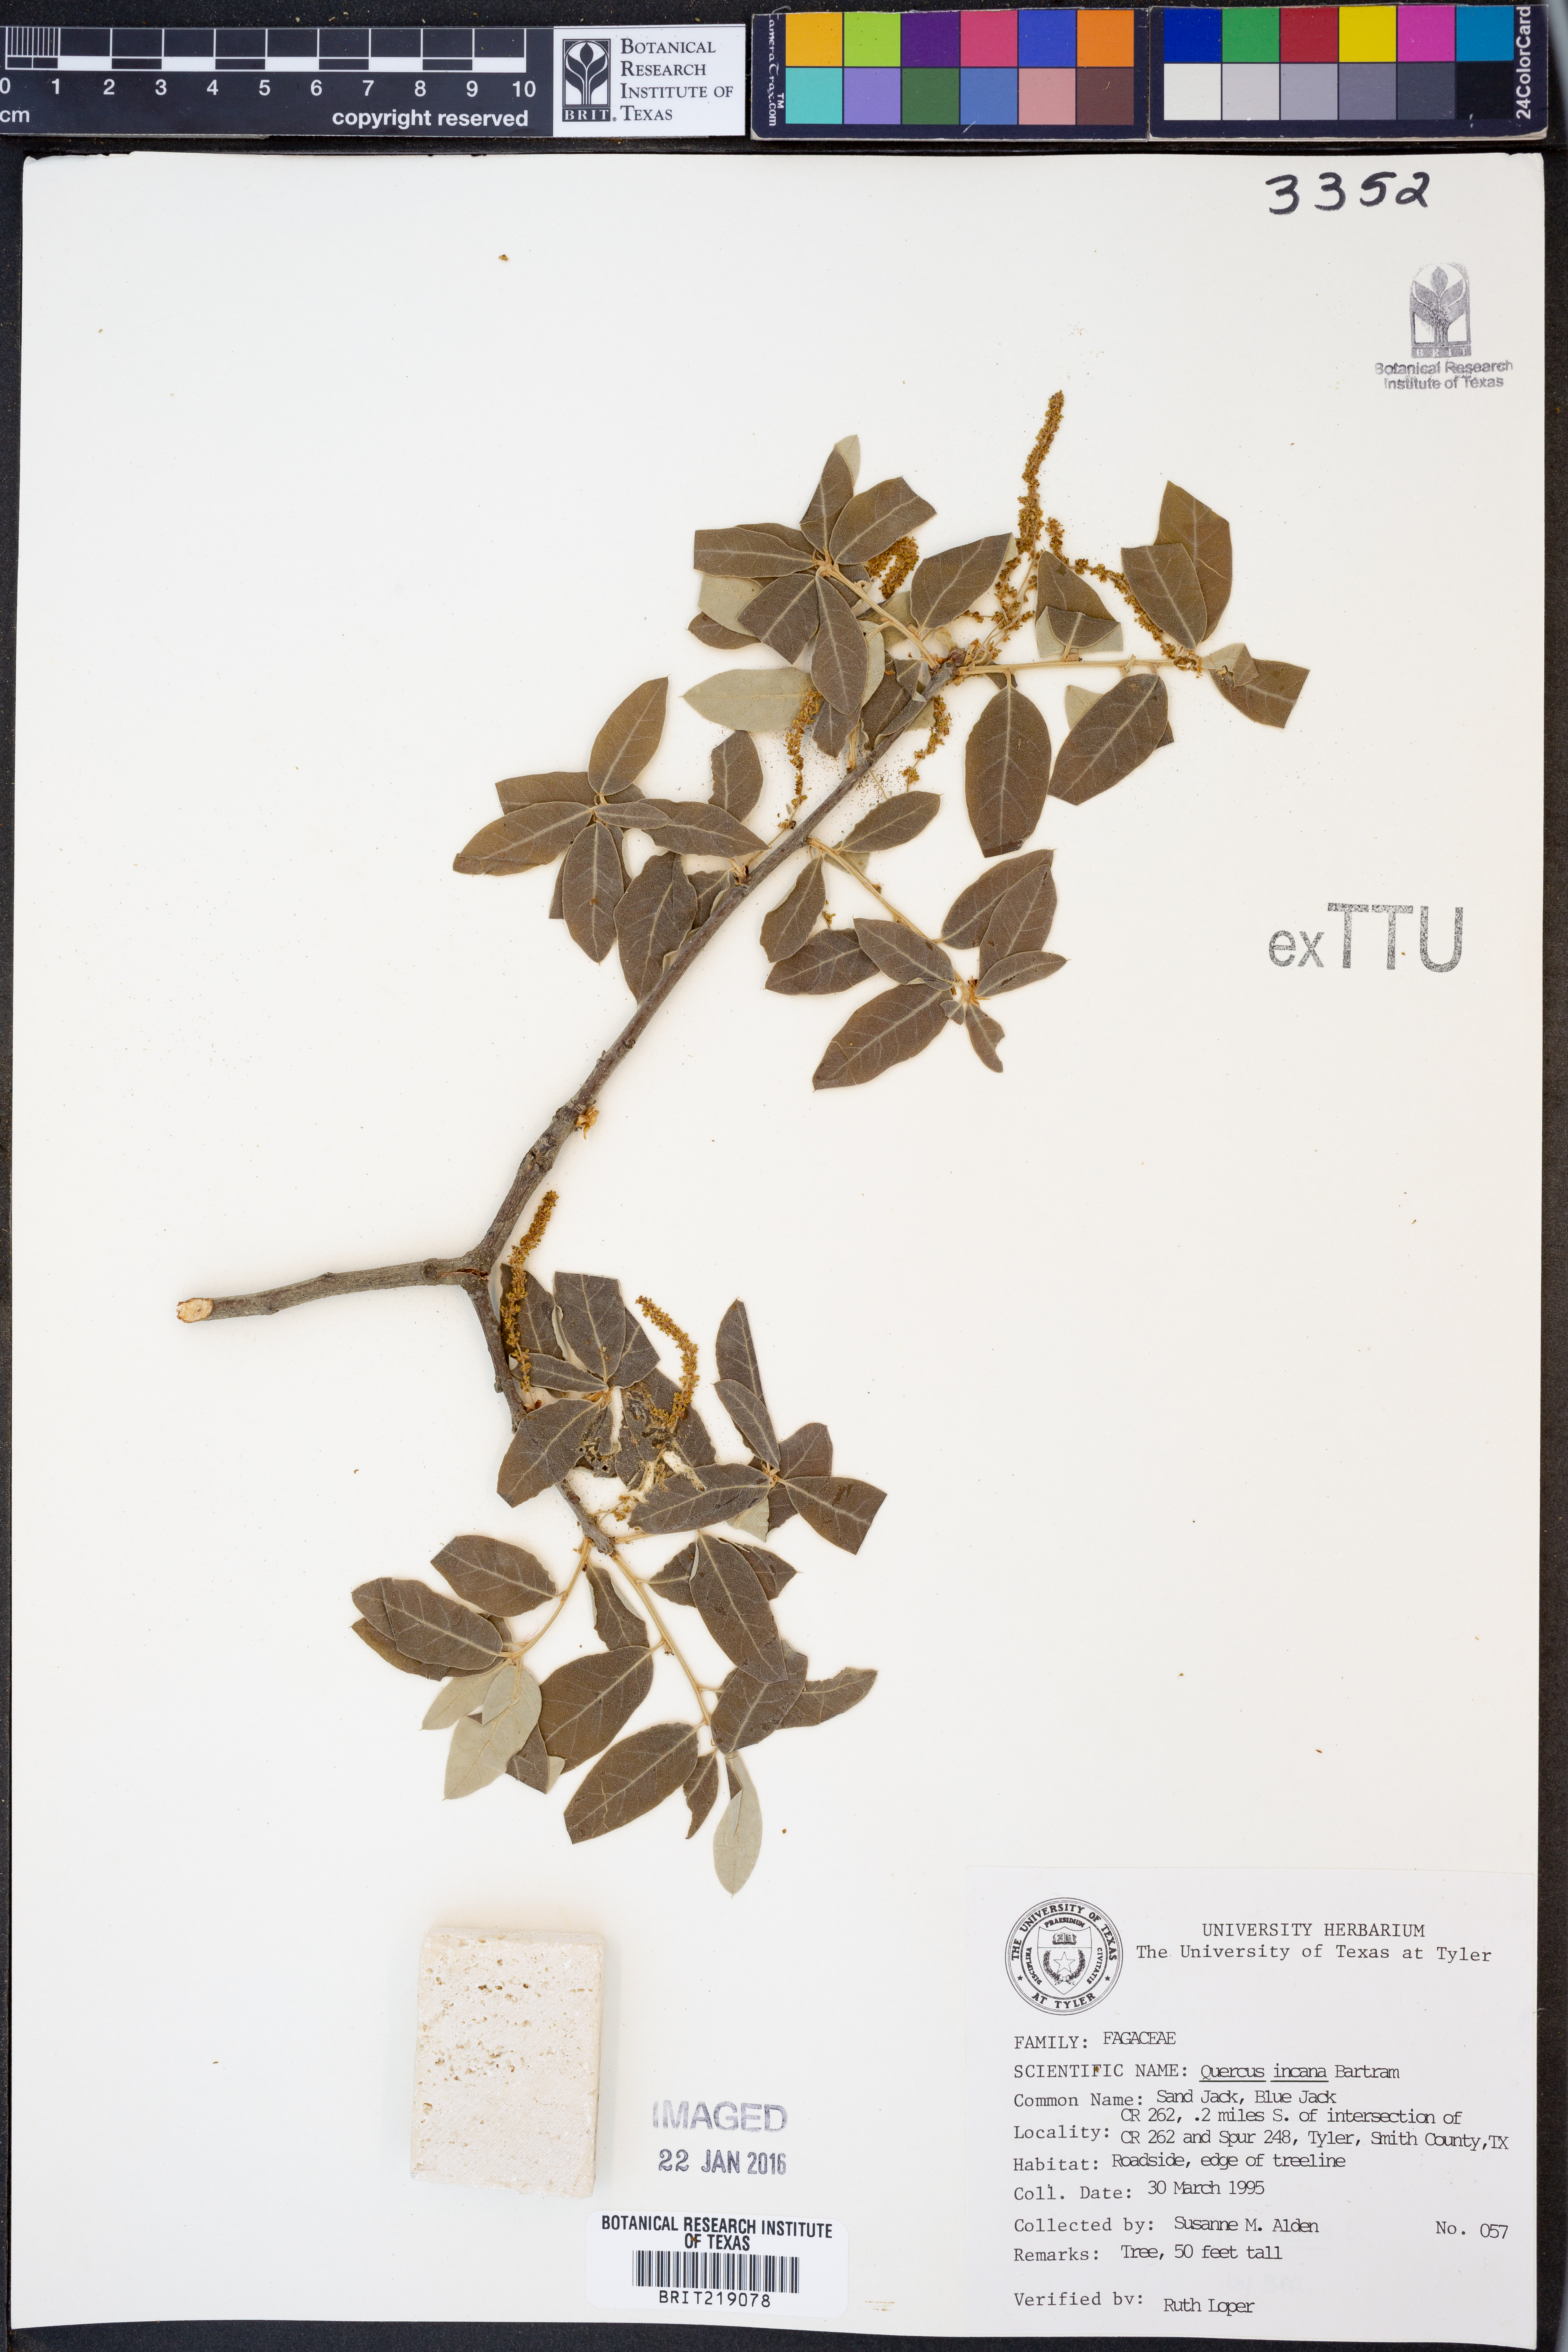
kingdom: Plantae
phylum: Tracheophyta
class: Magnoliopsida
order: Fagales
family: Fagaceae
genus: Quercus
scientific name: Quercus incana
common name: Bluejack oak
